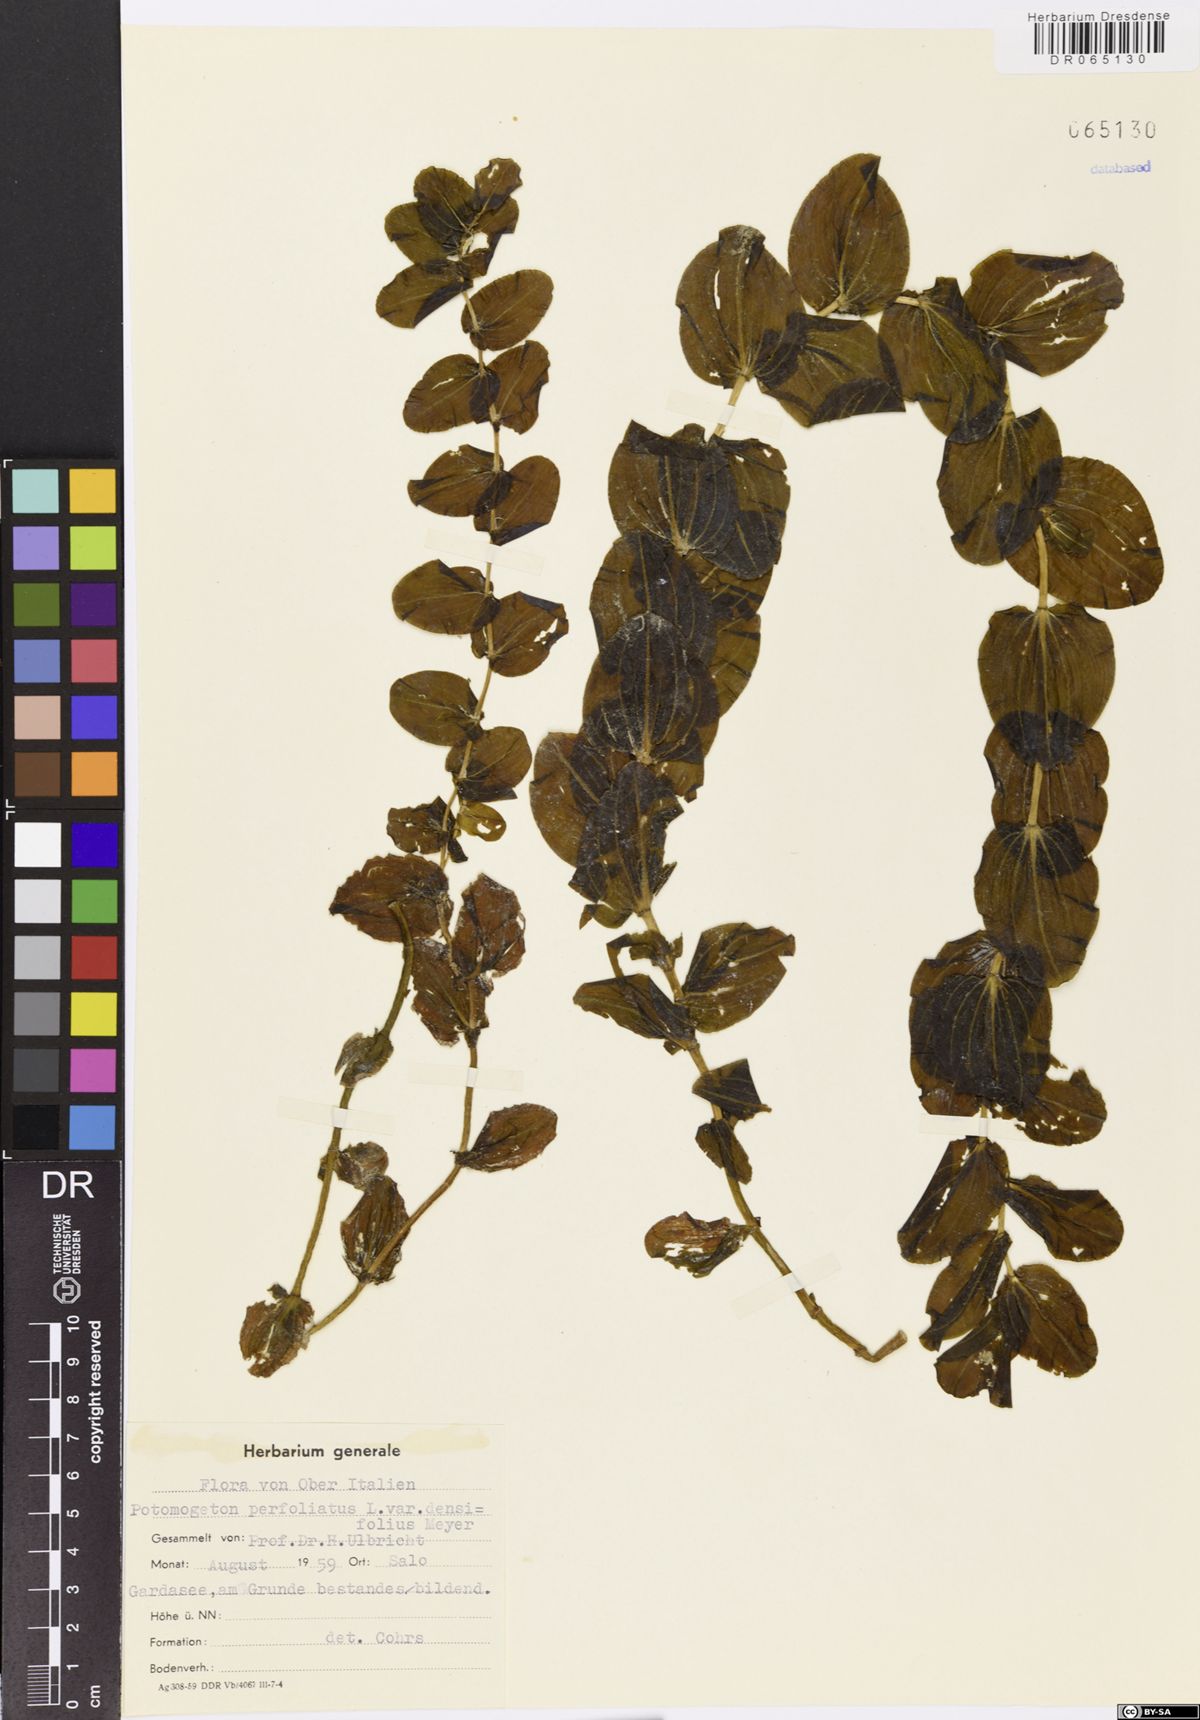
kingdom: Plantae
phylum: Tracheophyta
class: Liliopsida
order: Alismatales
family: Potamogetonaceae
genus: Potamogeton
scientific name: Potamogeton perfoliatus
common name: Perfoliate pondweed
